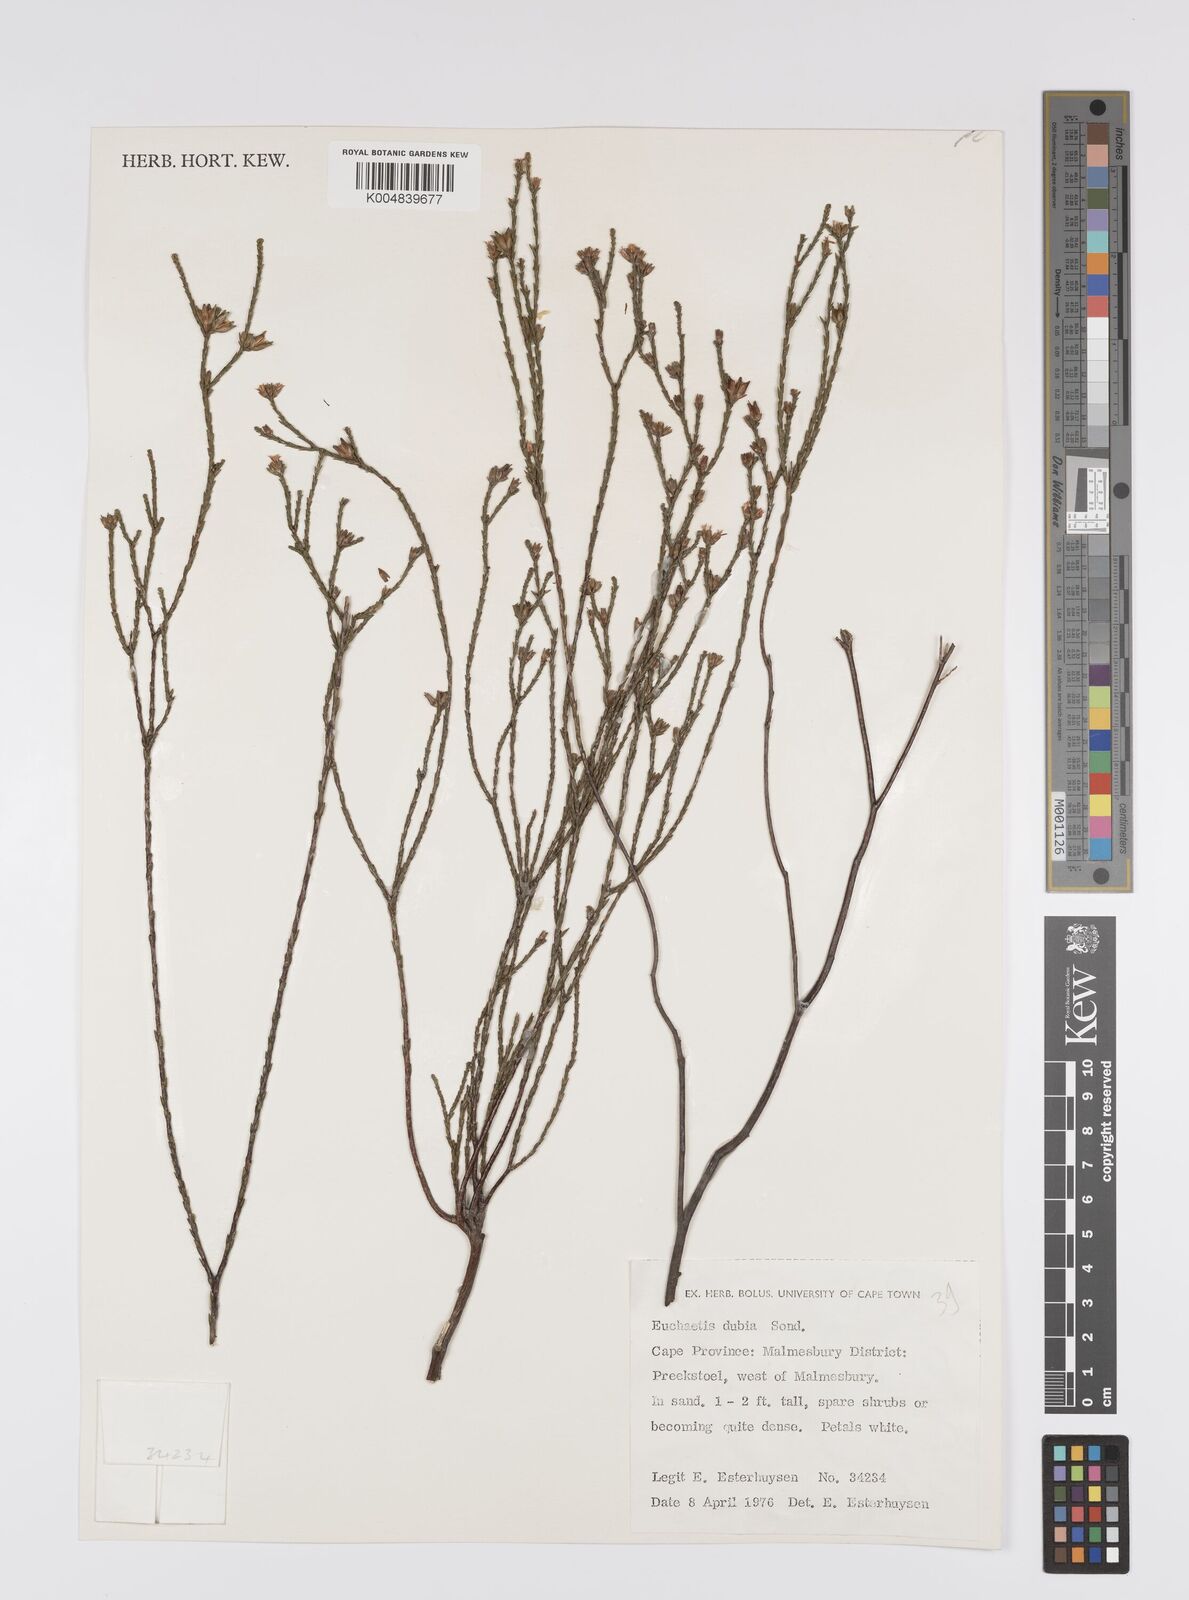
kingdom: Plantae
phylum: Tracheophyta
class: Magnoliopsida
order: Sapindales
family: Rutaceae
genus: Macrostylis
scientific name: Macrostylis cassiopoides
